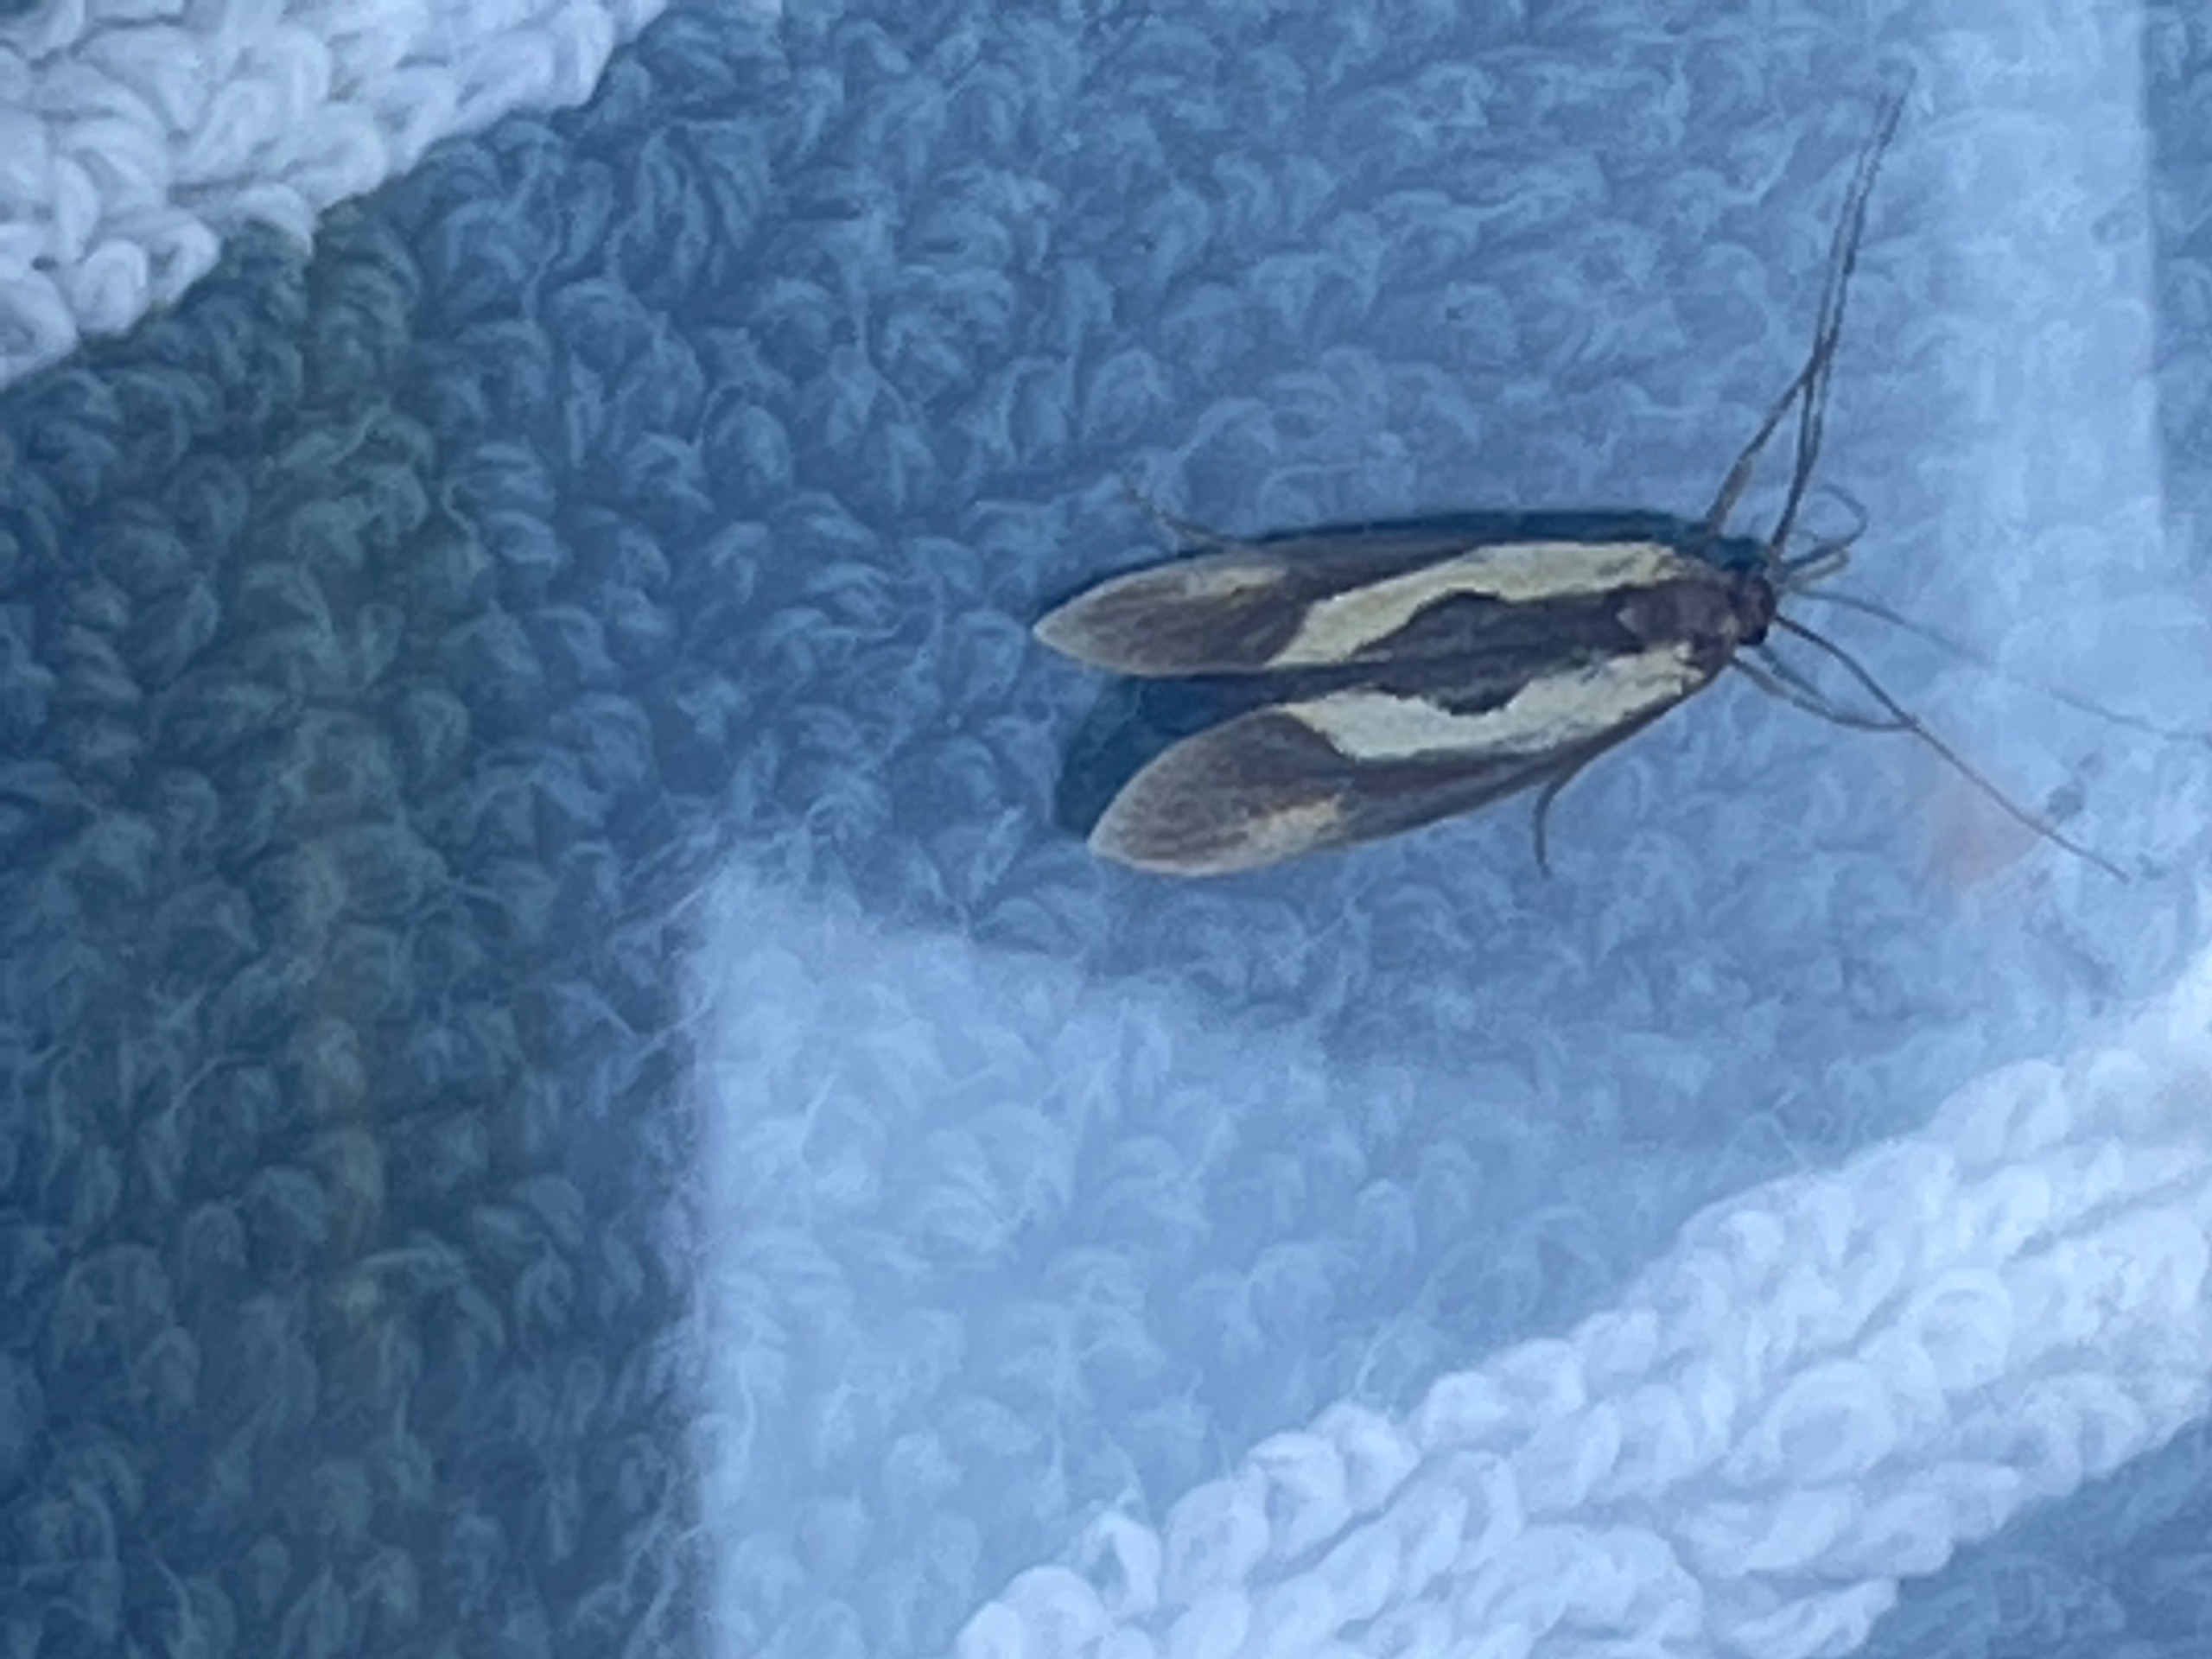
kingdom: Animalia
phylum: Arthropoda
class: Insecta
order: Lepidoptera
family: Oecophoridae
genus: Harpella
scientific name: Harpella forficella
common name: Kæmpeprydvinge
